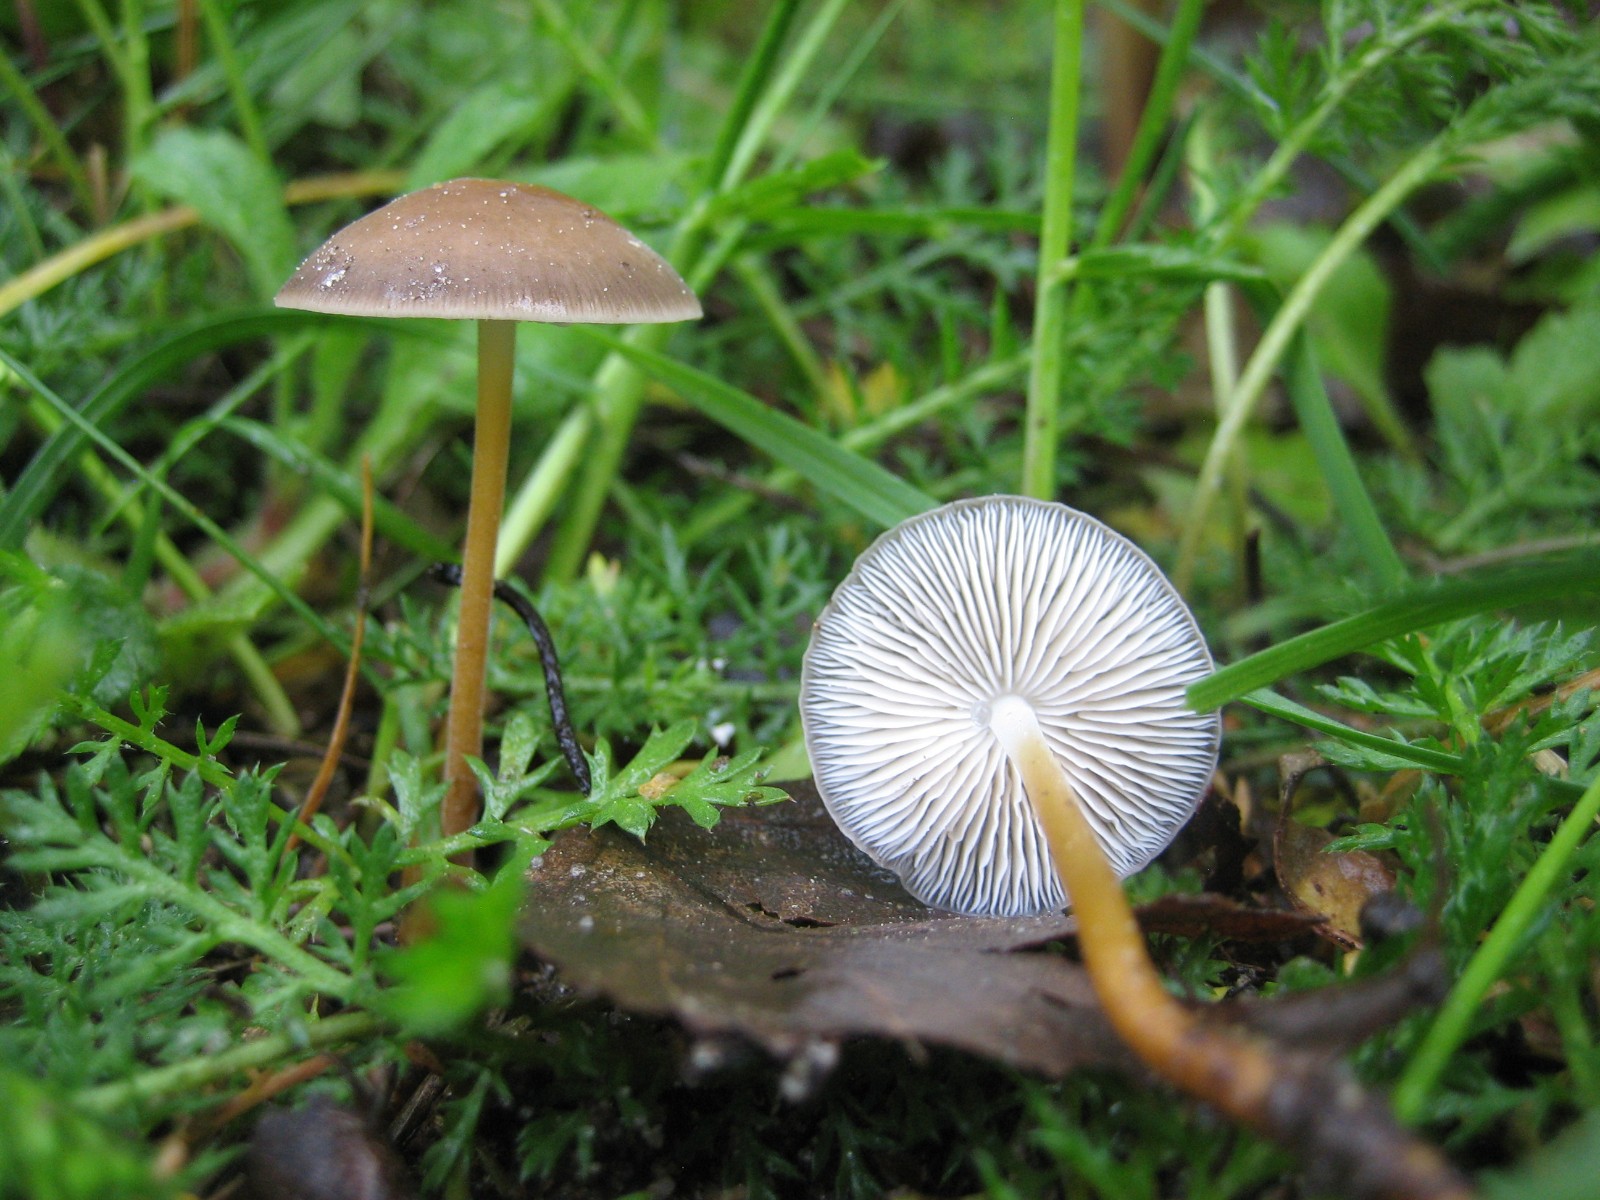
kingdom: Fungi
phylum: Basidiomycota
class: Agaricomycetes
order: Agaricales
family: Physalacriaceae
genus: Strobilurus
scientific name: Strobilurus esculentus
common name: gran-koglehat
